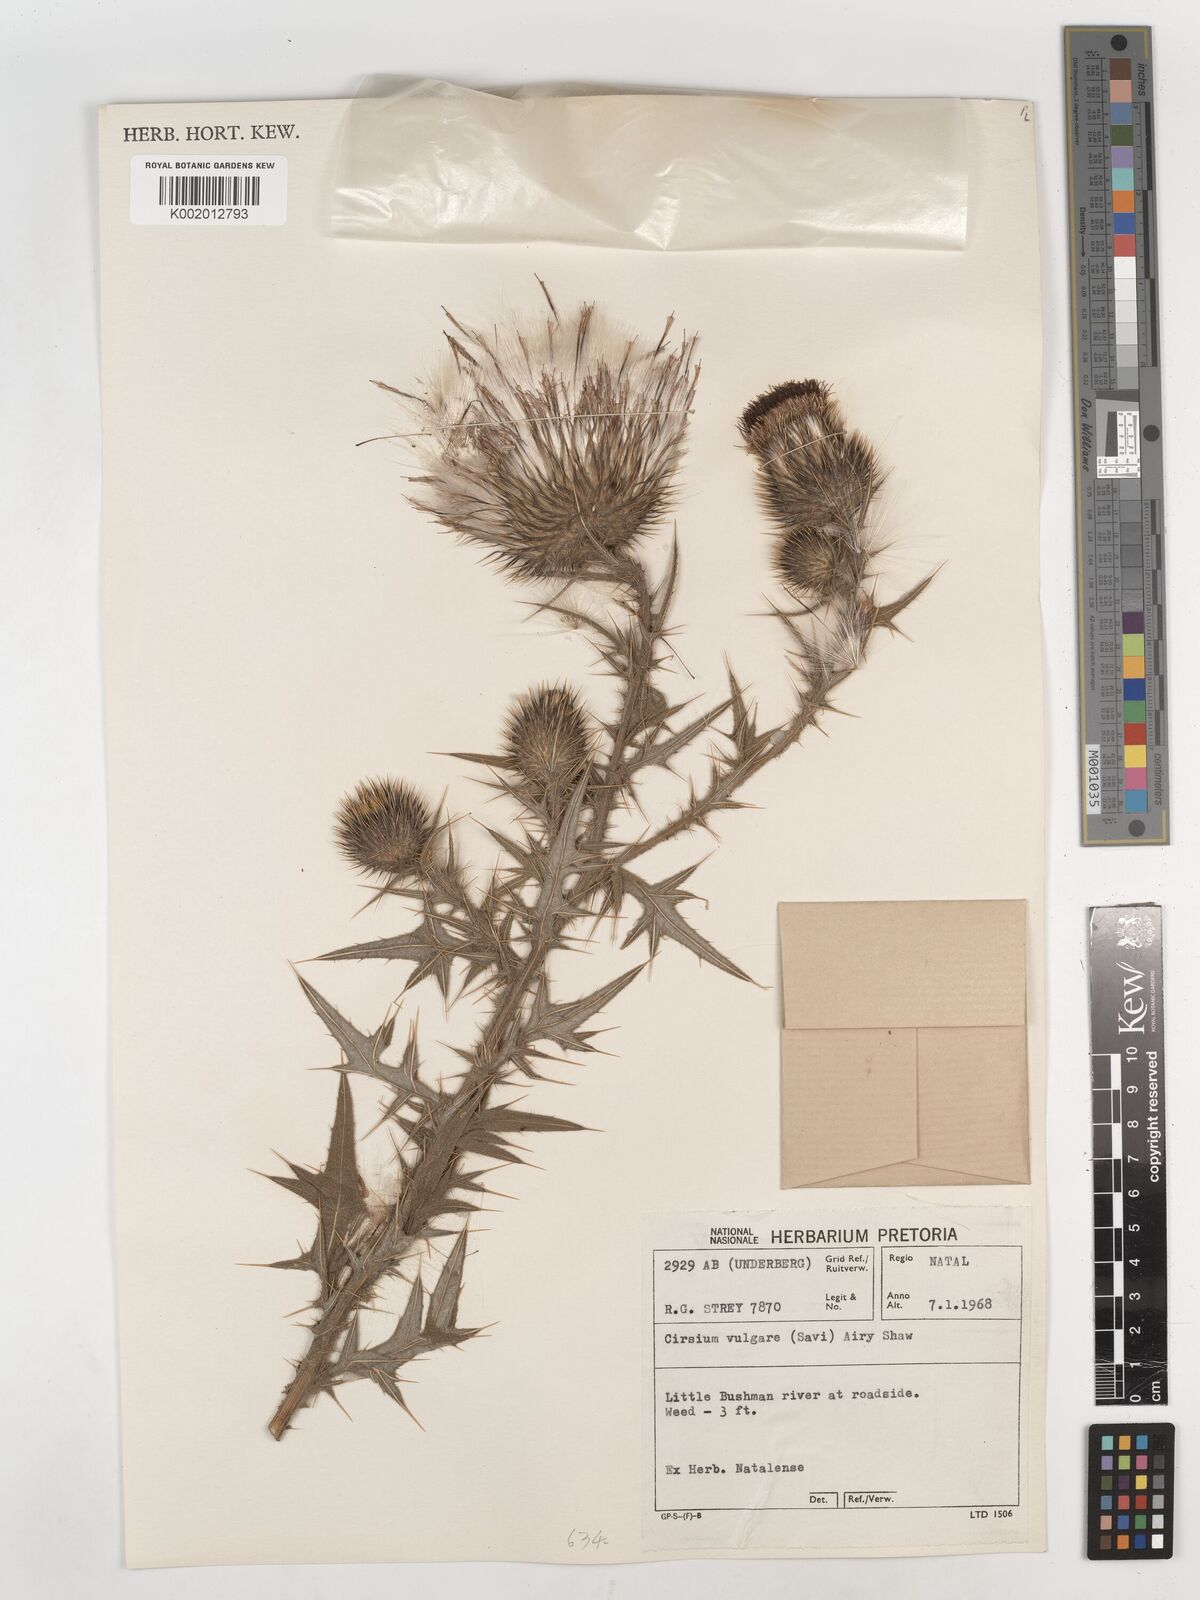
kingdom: Plantae
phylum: Tracheophyta
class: Magnoliopsida
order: Asterales
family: Asteraceae
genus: Cirsium
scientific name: Cirsium vulgare
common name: Bull thistle
